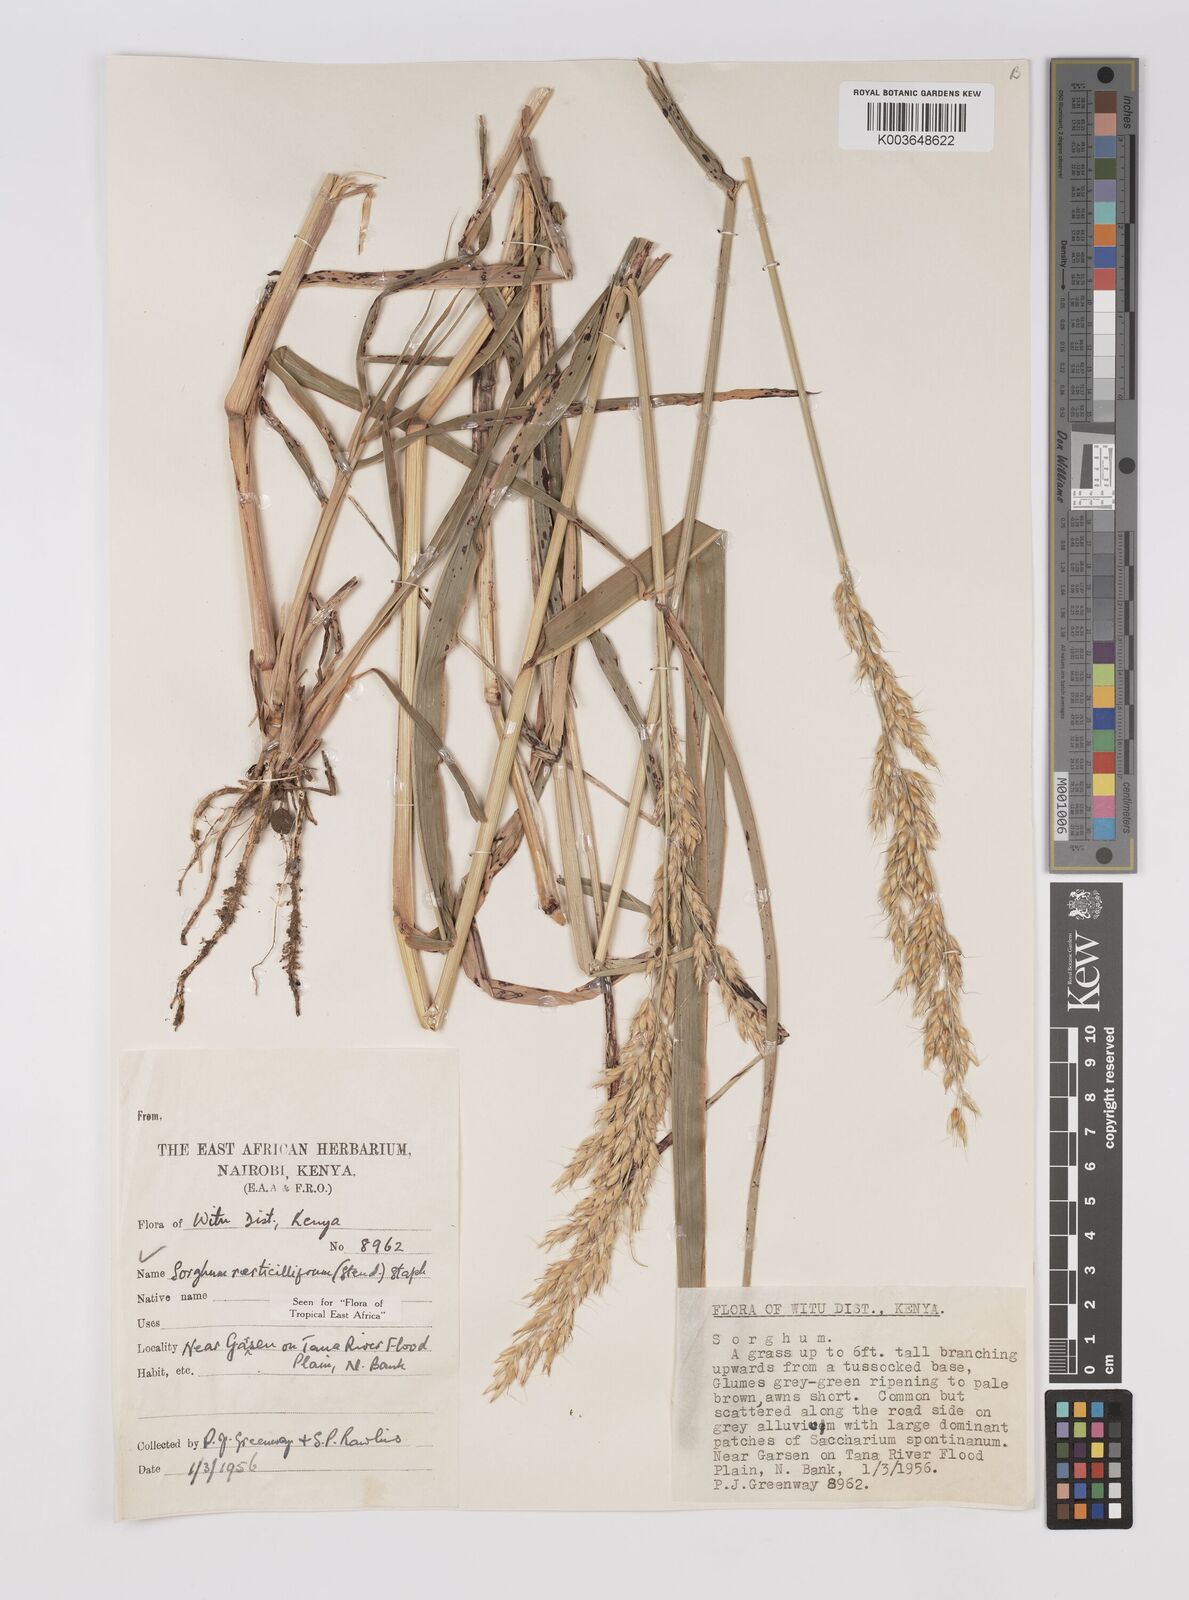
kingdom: Plantae
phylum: Tracheophyta
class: Liliopsida
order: Poales
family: Poaceae
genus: Sorghum
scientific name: Sorghum arundinaceum
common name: Sorghum
